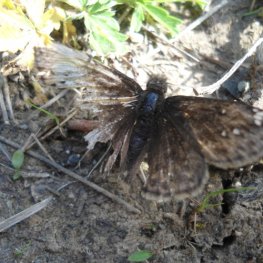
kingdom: Animalia
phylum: Arthropoda
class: Insecta
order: Lepidoptera
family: Hesperiidae
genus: Gesta
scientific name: Gesta
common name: Juvenal's Duskywing
